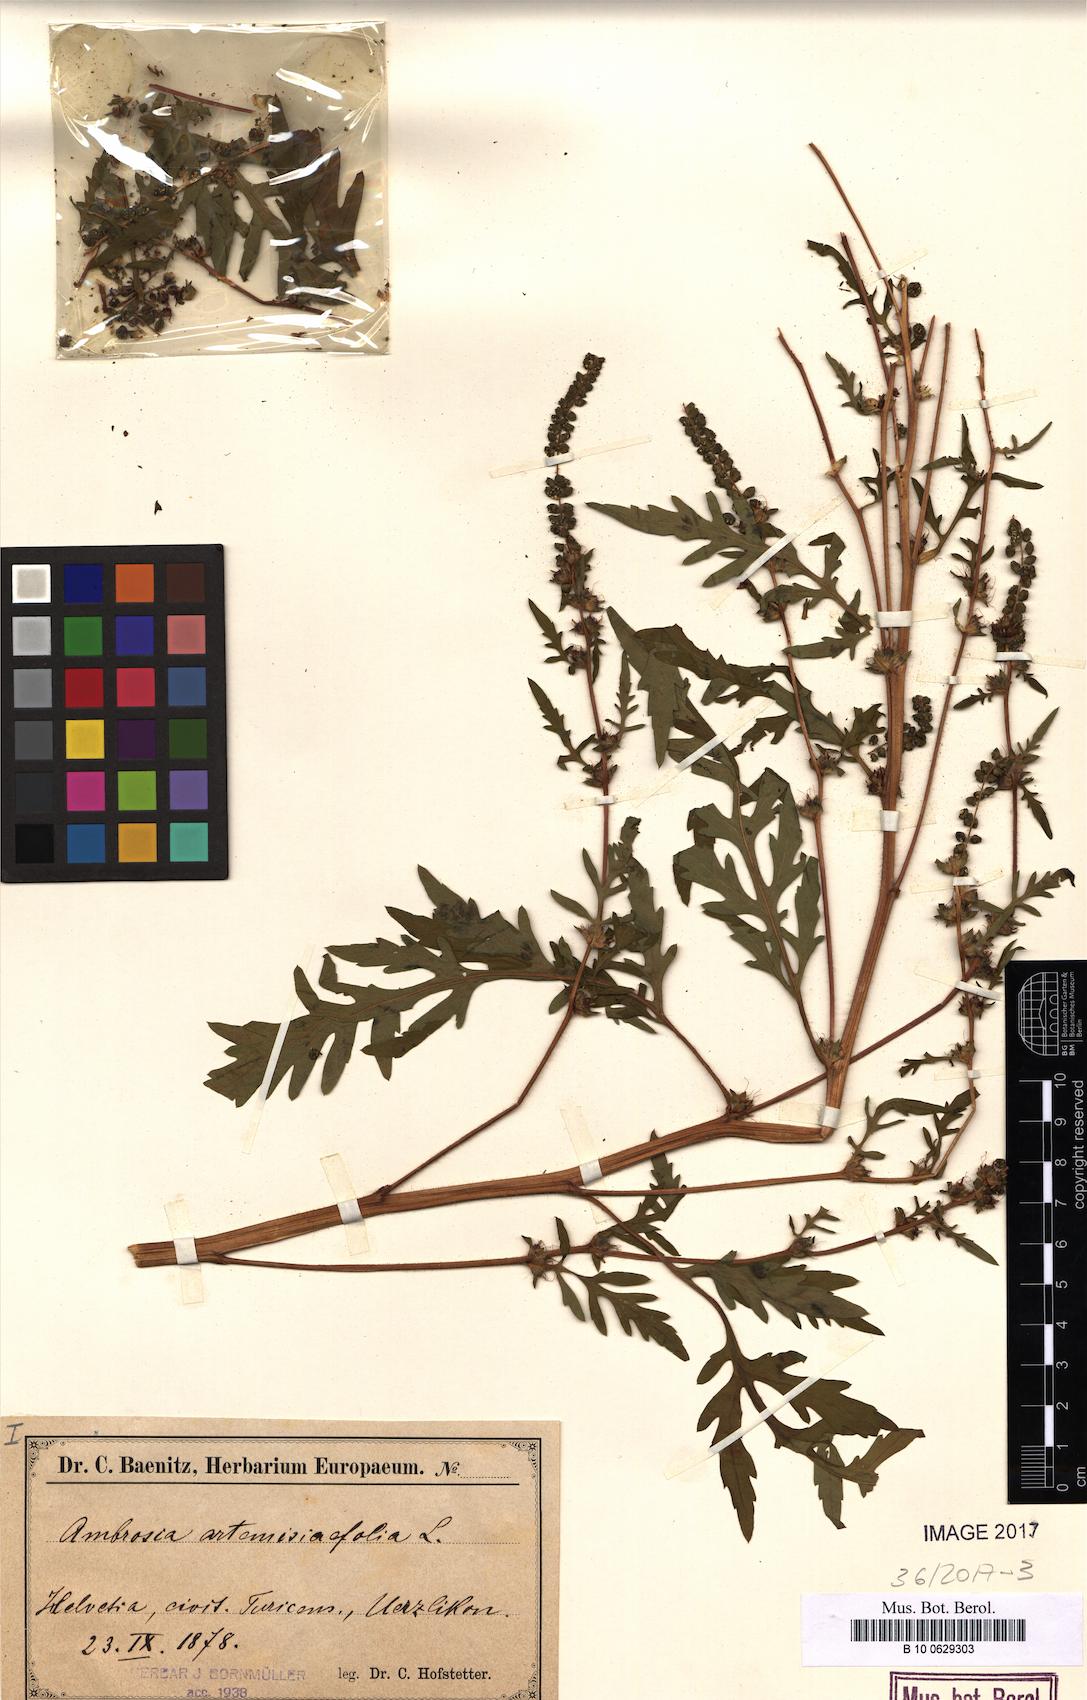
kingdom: Plantae
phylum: Tracheophyta
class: Magnoliopsida
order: Asterales
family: Asteraceae
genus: Ambrosia
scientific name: Ambrosia artemisiifolia
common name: Annual ragweed
